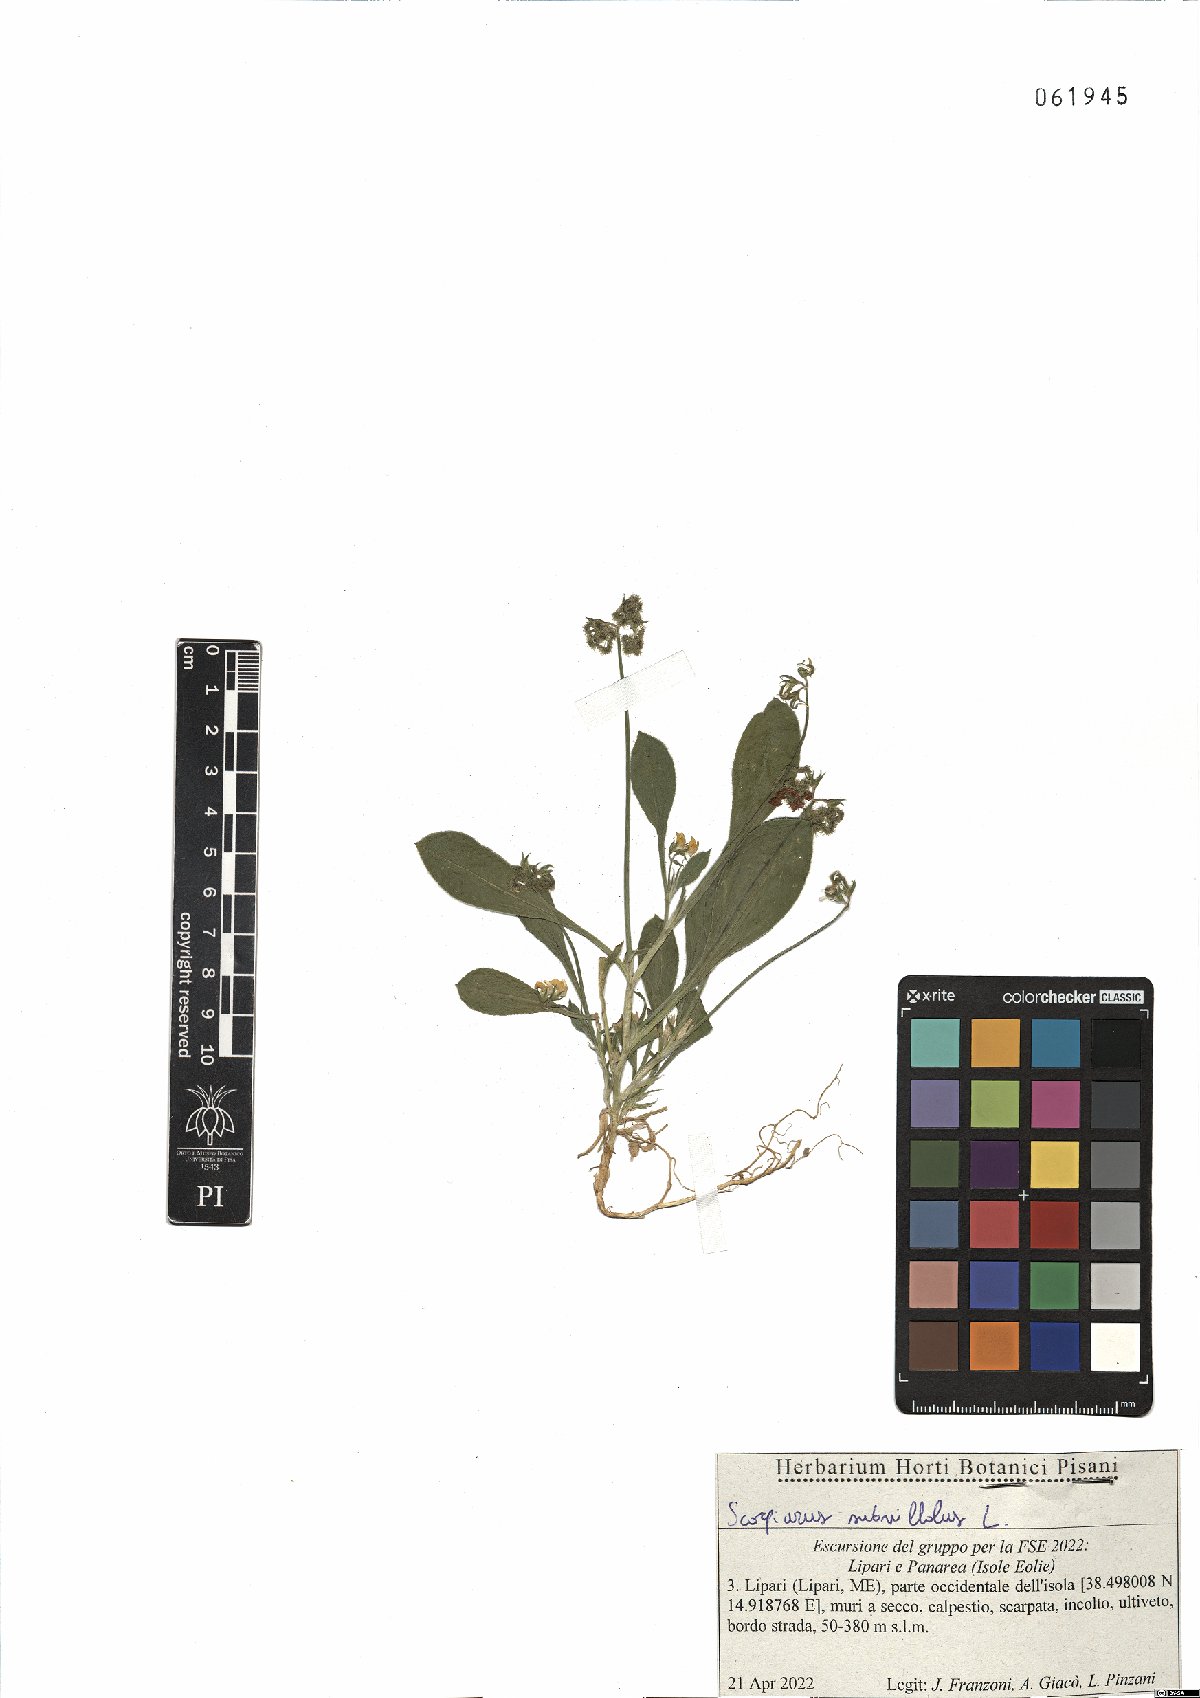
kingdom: Plantae
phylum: Tracheophyta
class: Magnoliopsida
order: Fabales
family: Fabaceae
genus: Scorpiurus
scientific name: Scorpiurus muricatus
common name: Caterpillar-plant
